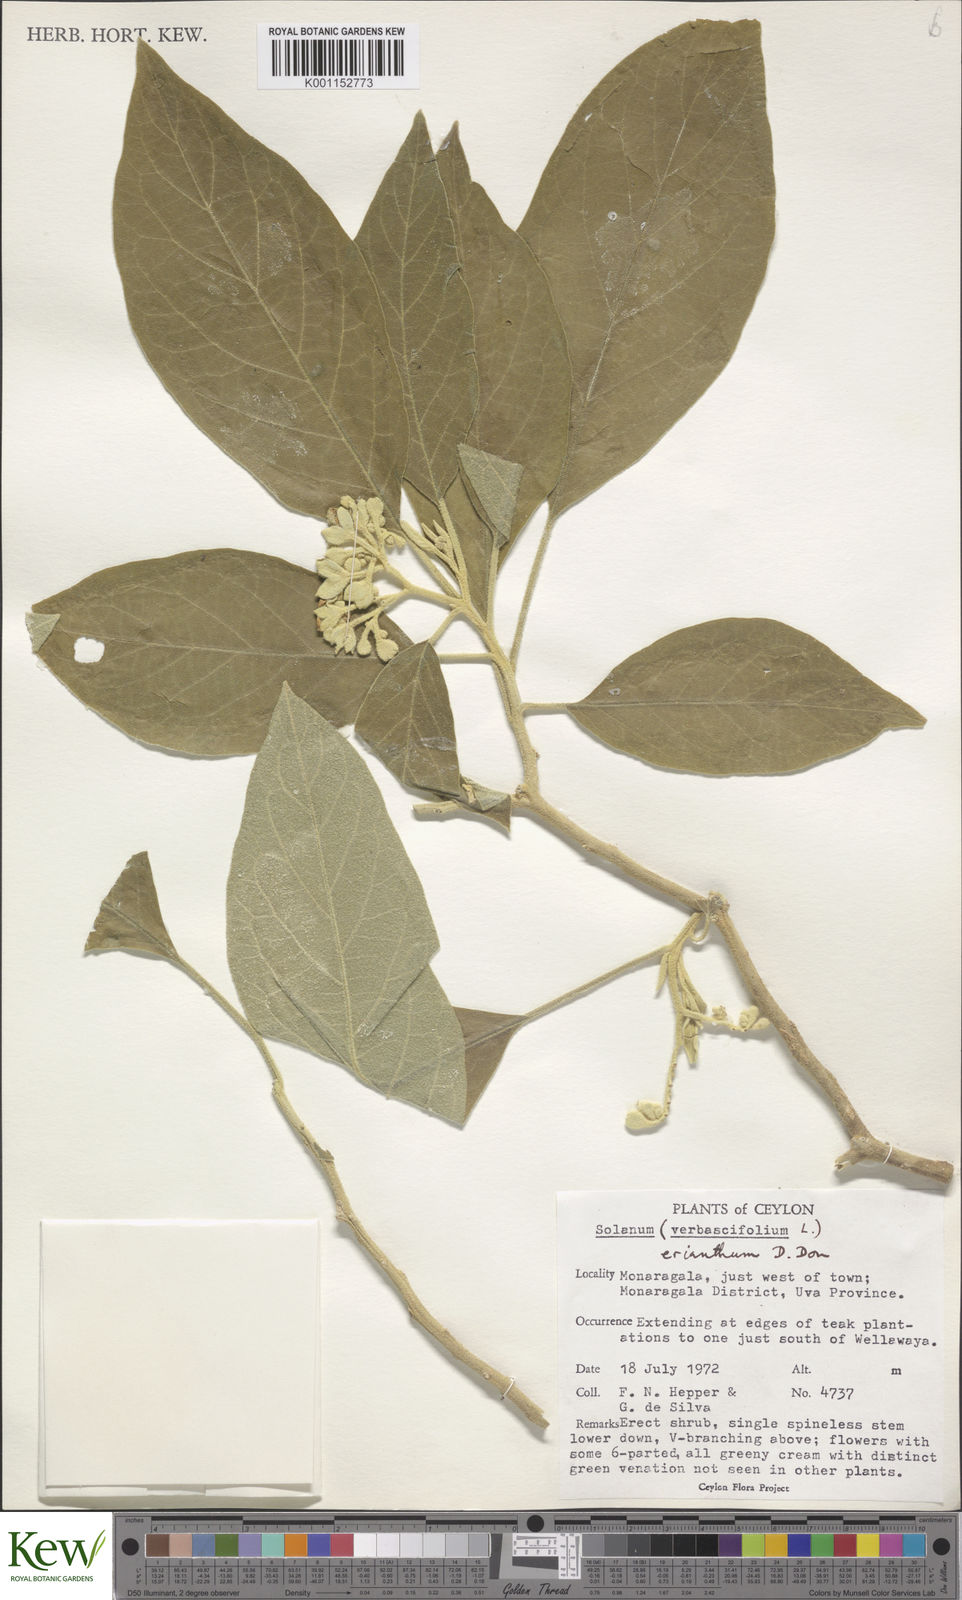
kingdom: Plantae
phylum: Tracheophyta
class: Magnoliopsida
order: Solanales
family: Solanaceae
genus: Solanum
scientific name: Solanum erianthum
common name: Tobacco-tree
